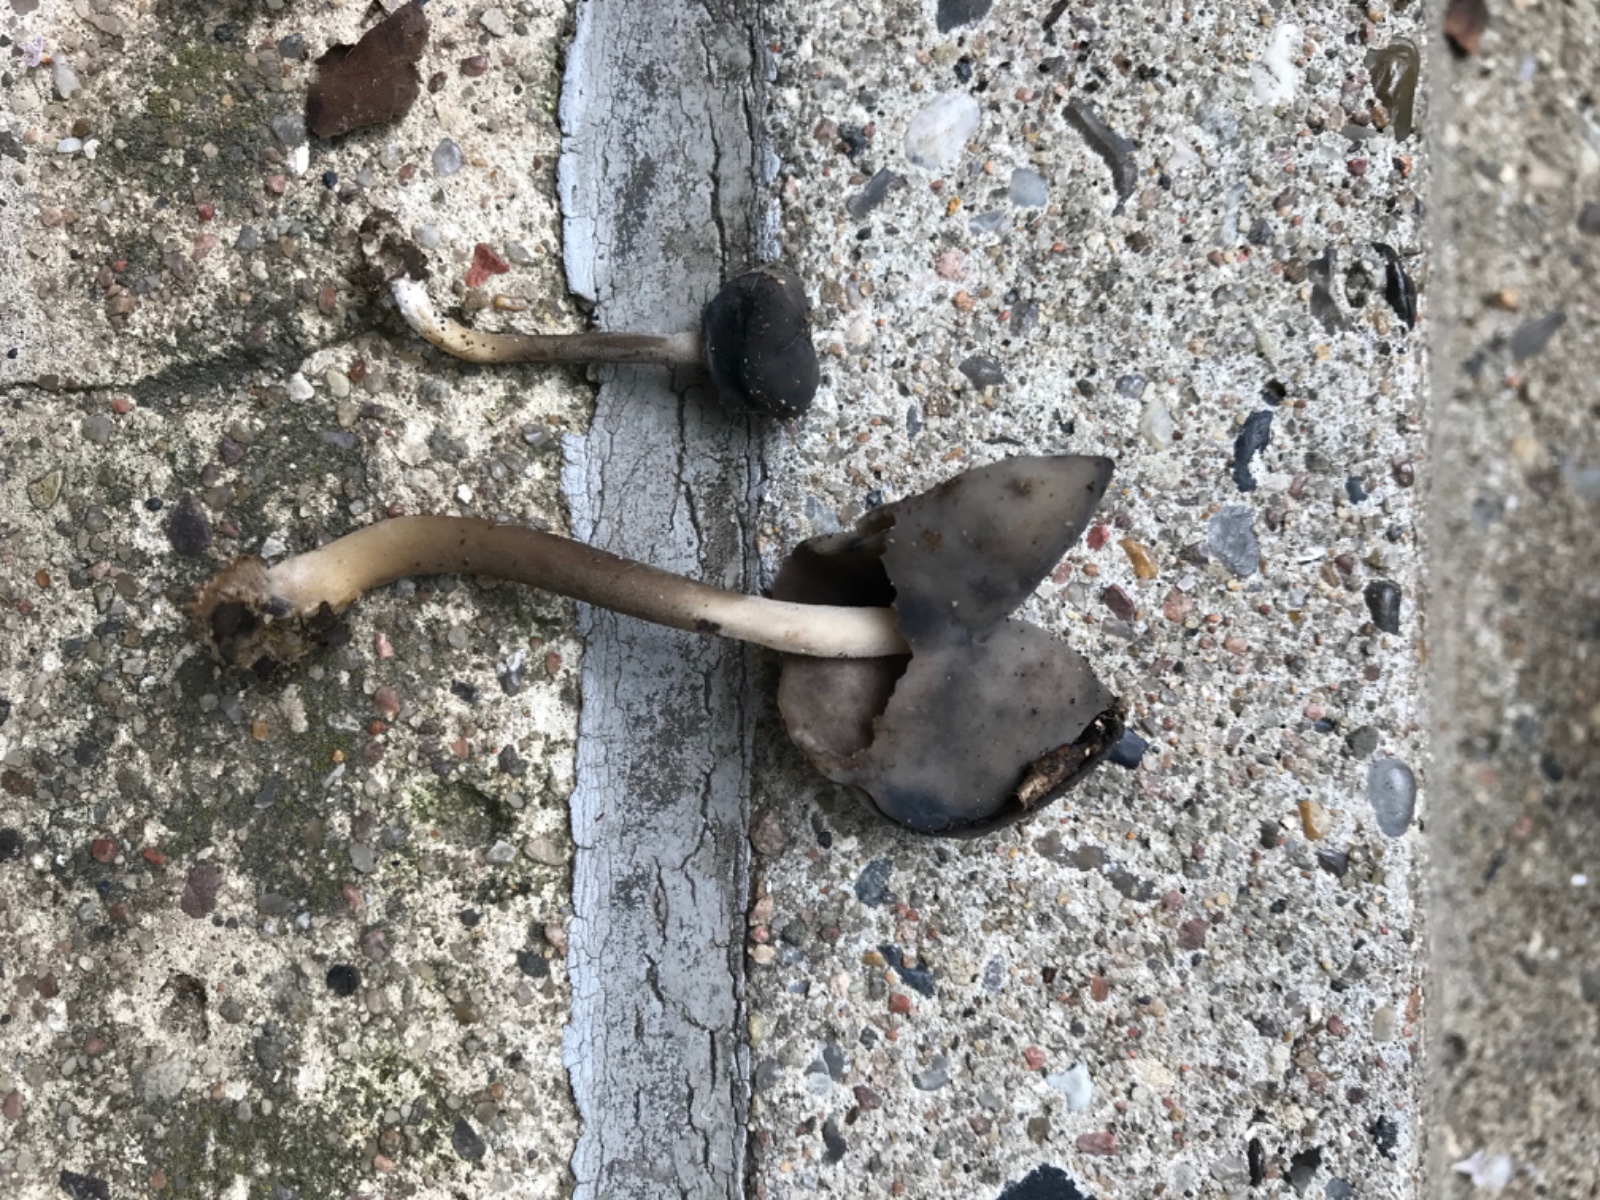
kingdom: Fungi
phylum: Ascomycota
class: Pezizomycetes
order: Pezizales
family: Helvellaceae
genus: Helvella
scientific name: Helvella atra
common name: sort foldhat
